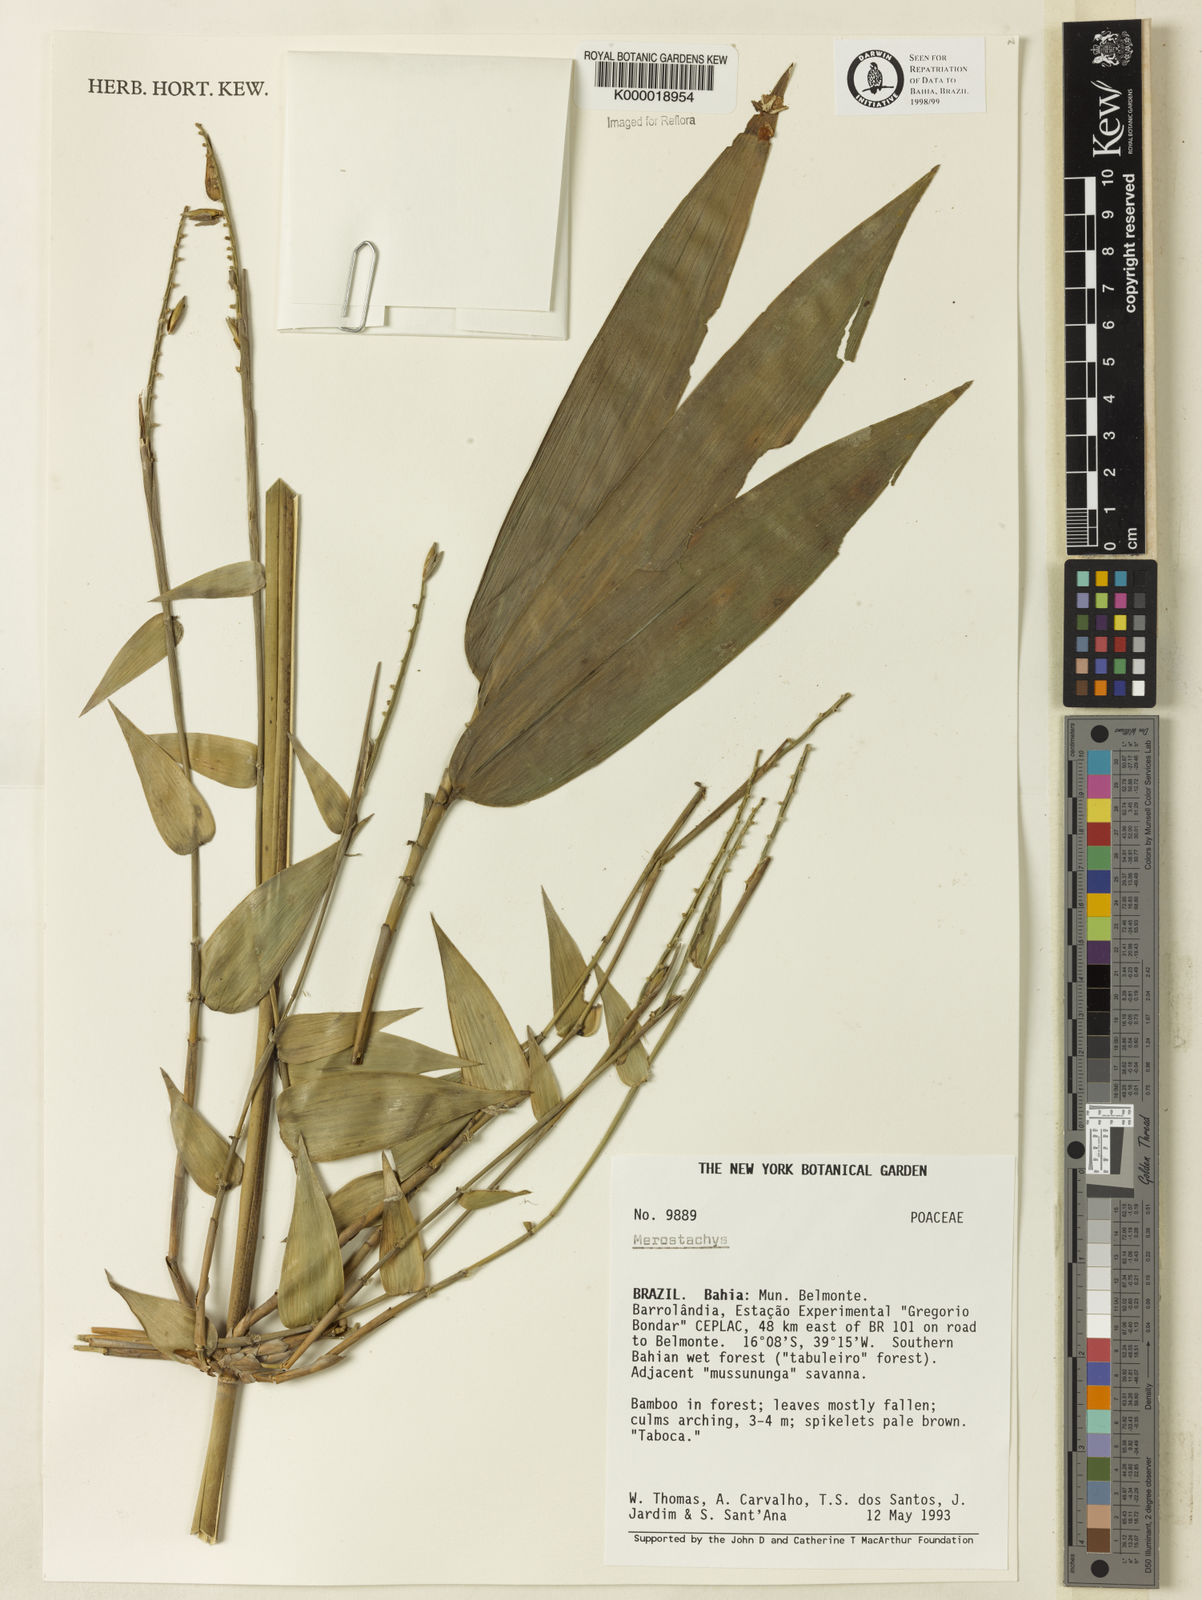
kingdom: Plantae
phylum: Tracheophyta
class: Liliopsida
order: Poales
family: Poaceae
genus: Merostachys
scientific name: Merostachys
